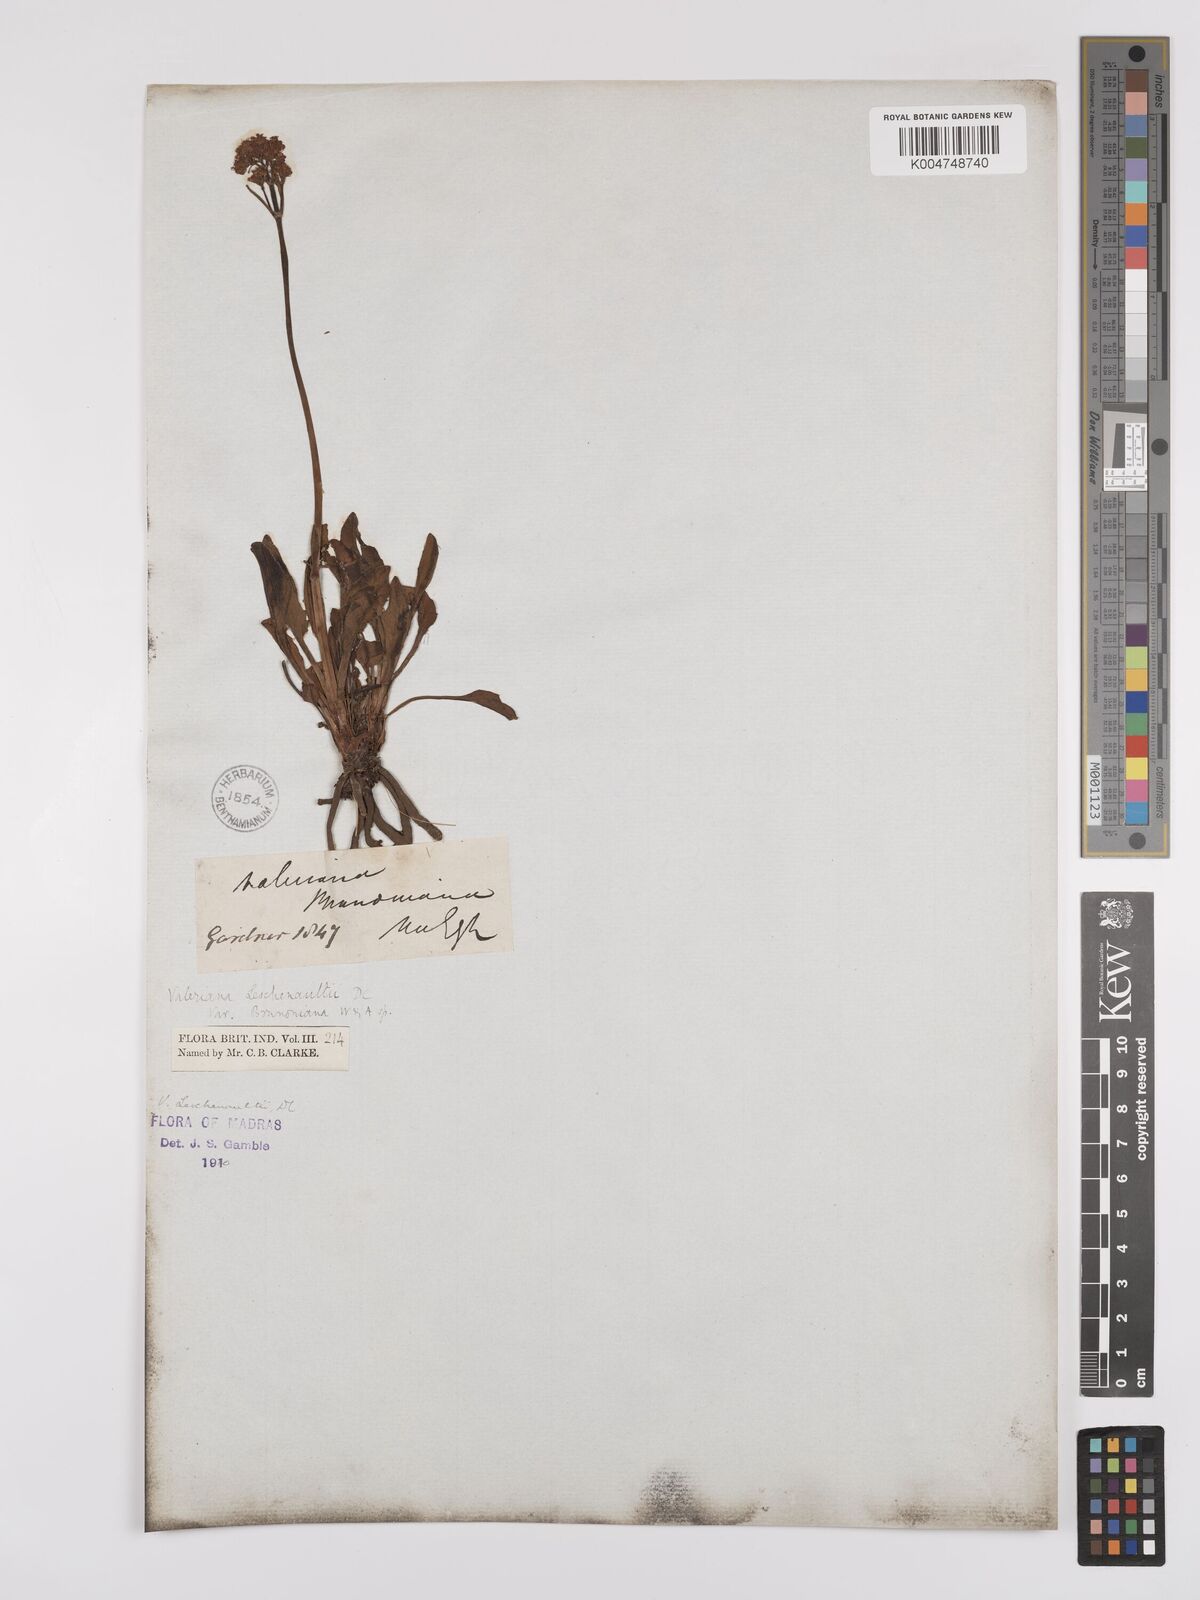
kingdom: Plantae
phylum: Tracheophyta
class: Magnoliopsida
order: Dipsacales
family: Caprifoliaceae
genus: Valeriana
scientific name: Valeriana leschenaultii
